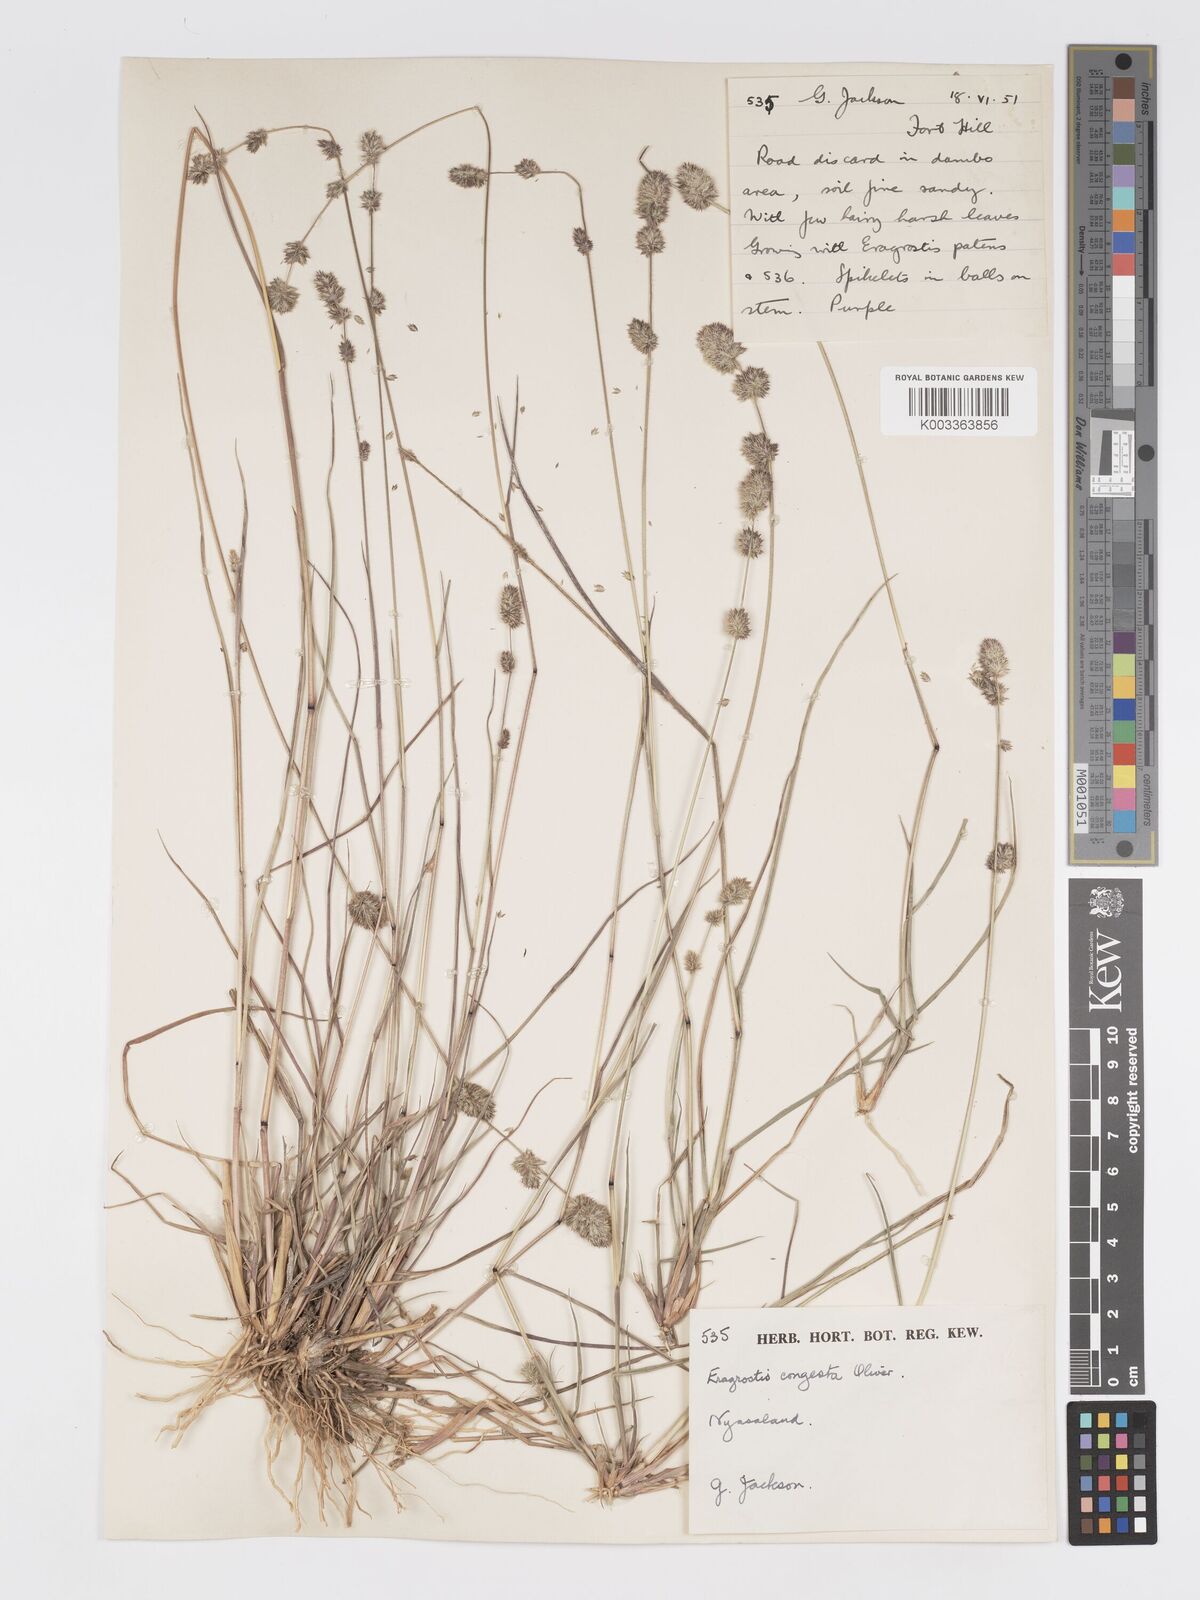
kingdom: Plantae
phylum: Tracheophyta
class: Liliopsida
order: Poales
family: Poaceae
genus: Eragrostis
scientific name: Eragrostis congesta
